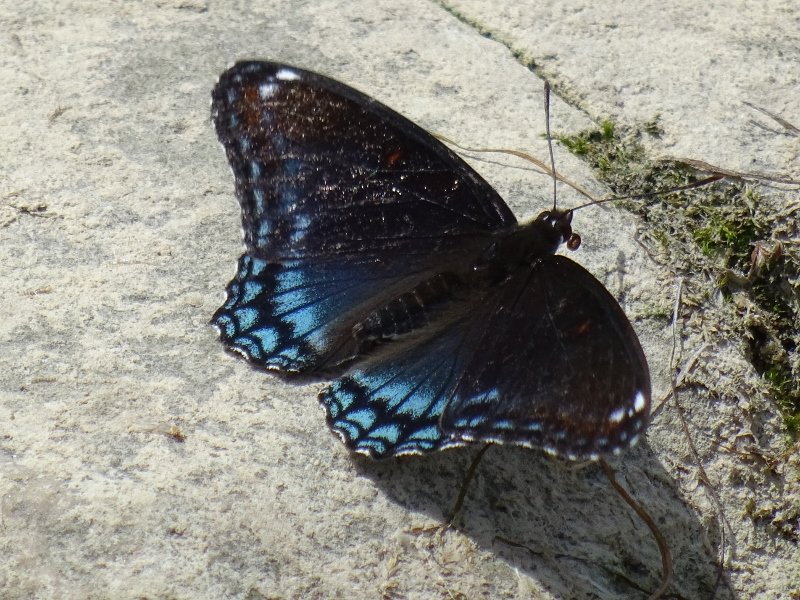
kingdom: Animalia
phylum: Arthropoda
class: Insecta
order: Lepidoptera
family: Nymphalidae
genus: Limenitis
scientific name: Limenitis astyanax
